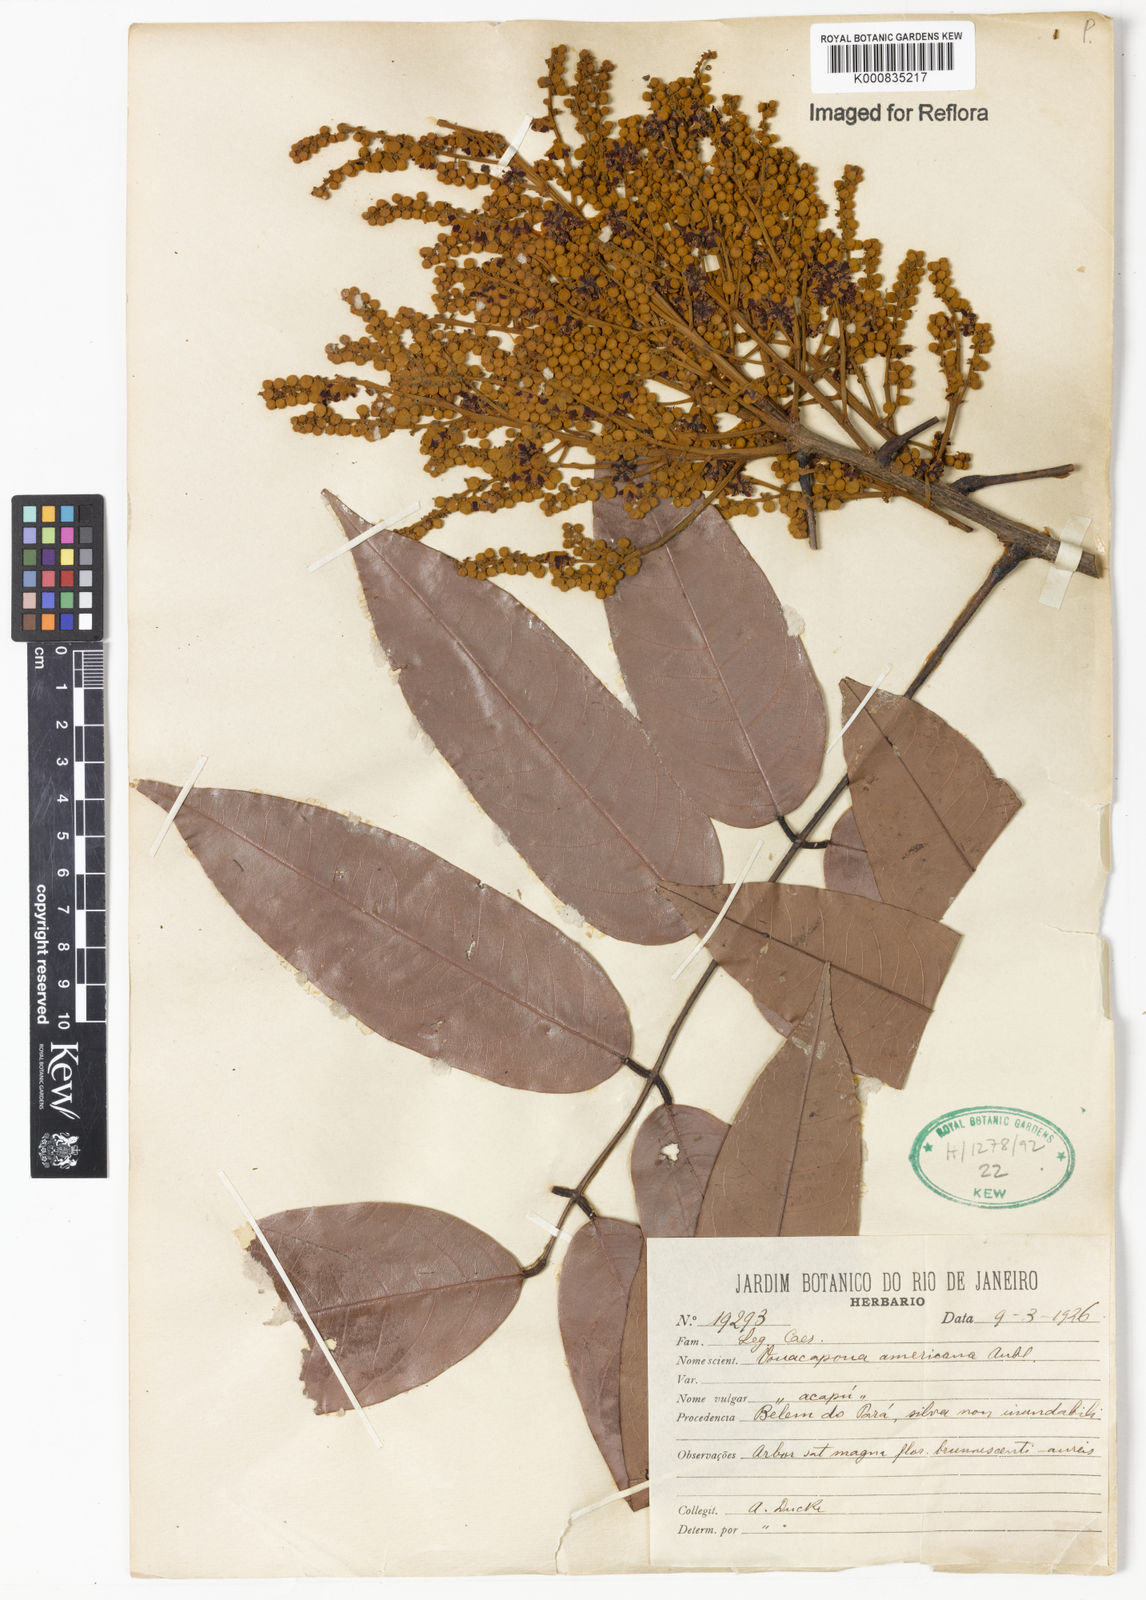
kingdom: Plantae
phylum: Tracheophyta
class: Magnoliopsida
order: Fabales
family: Fabaceae
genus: Vouacapoua
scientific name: Vouacapoua americana
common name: Partridgewood
